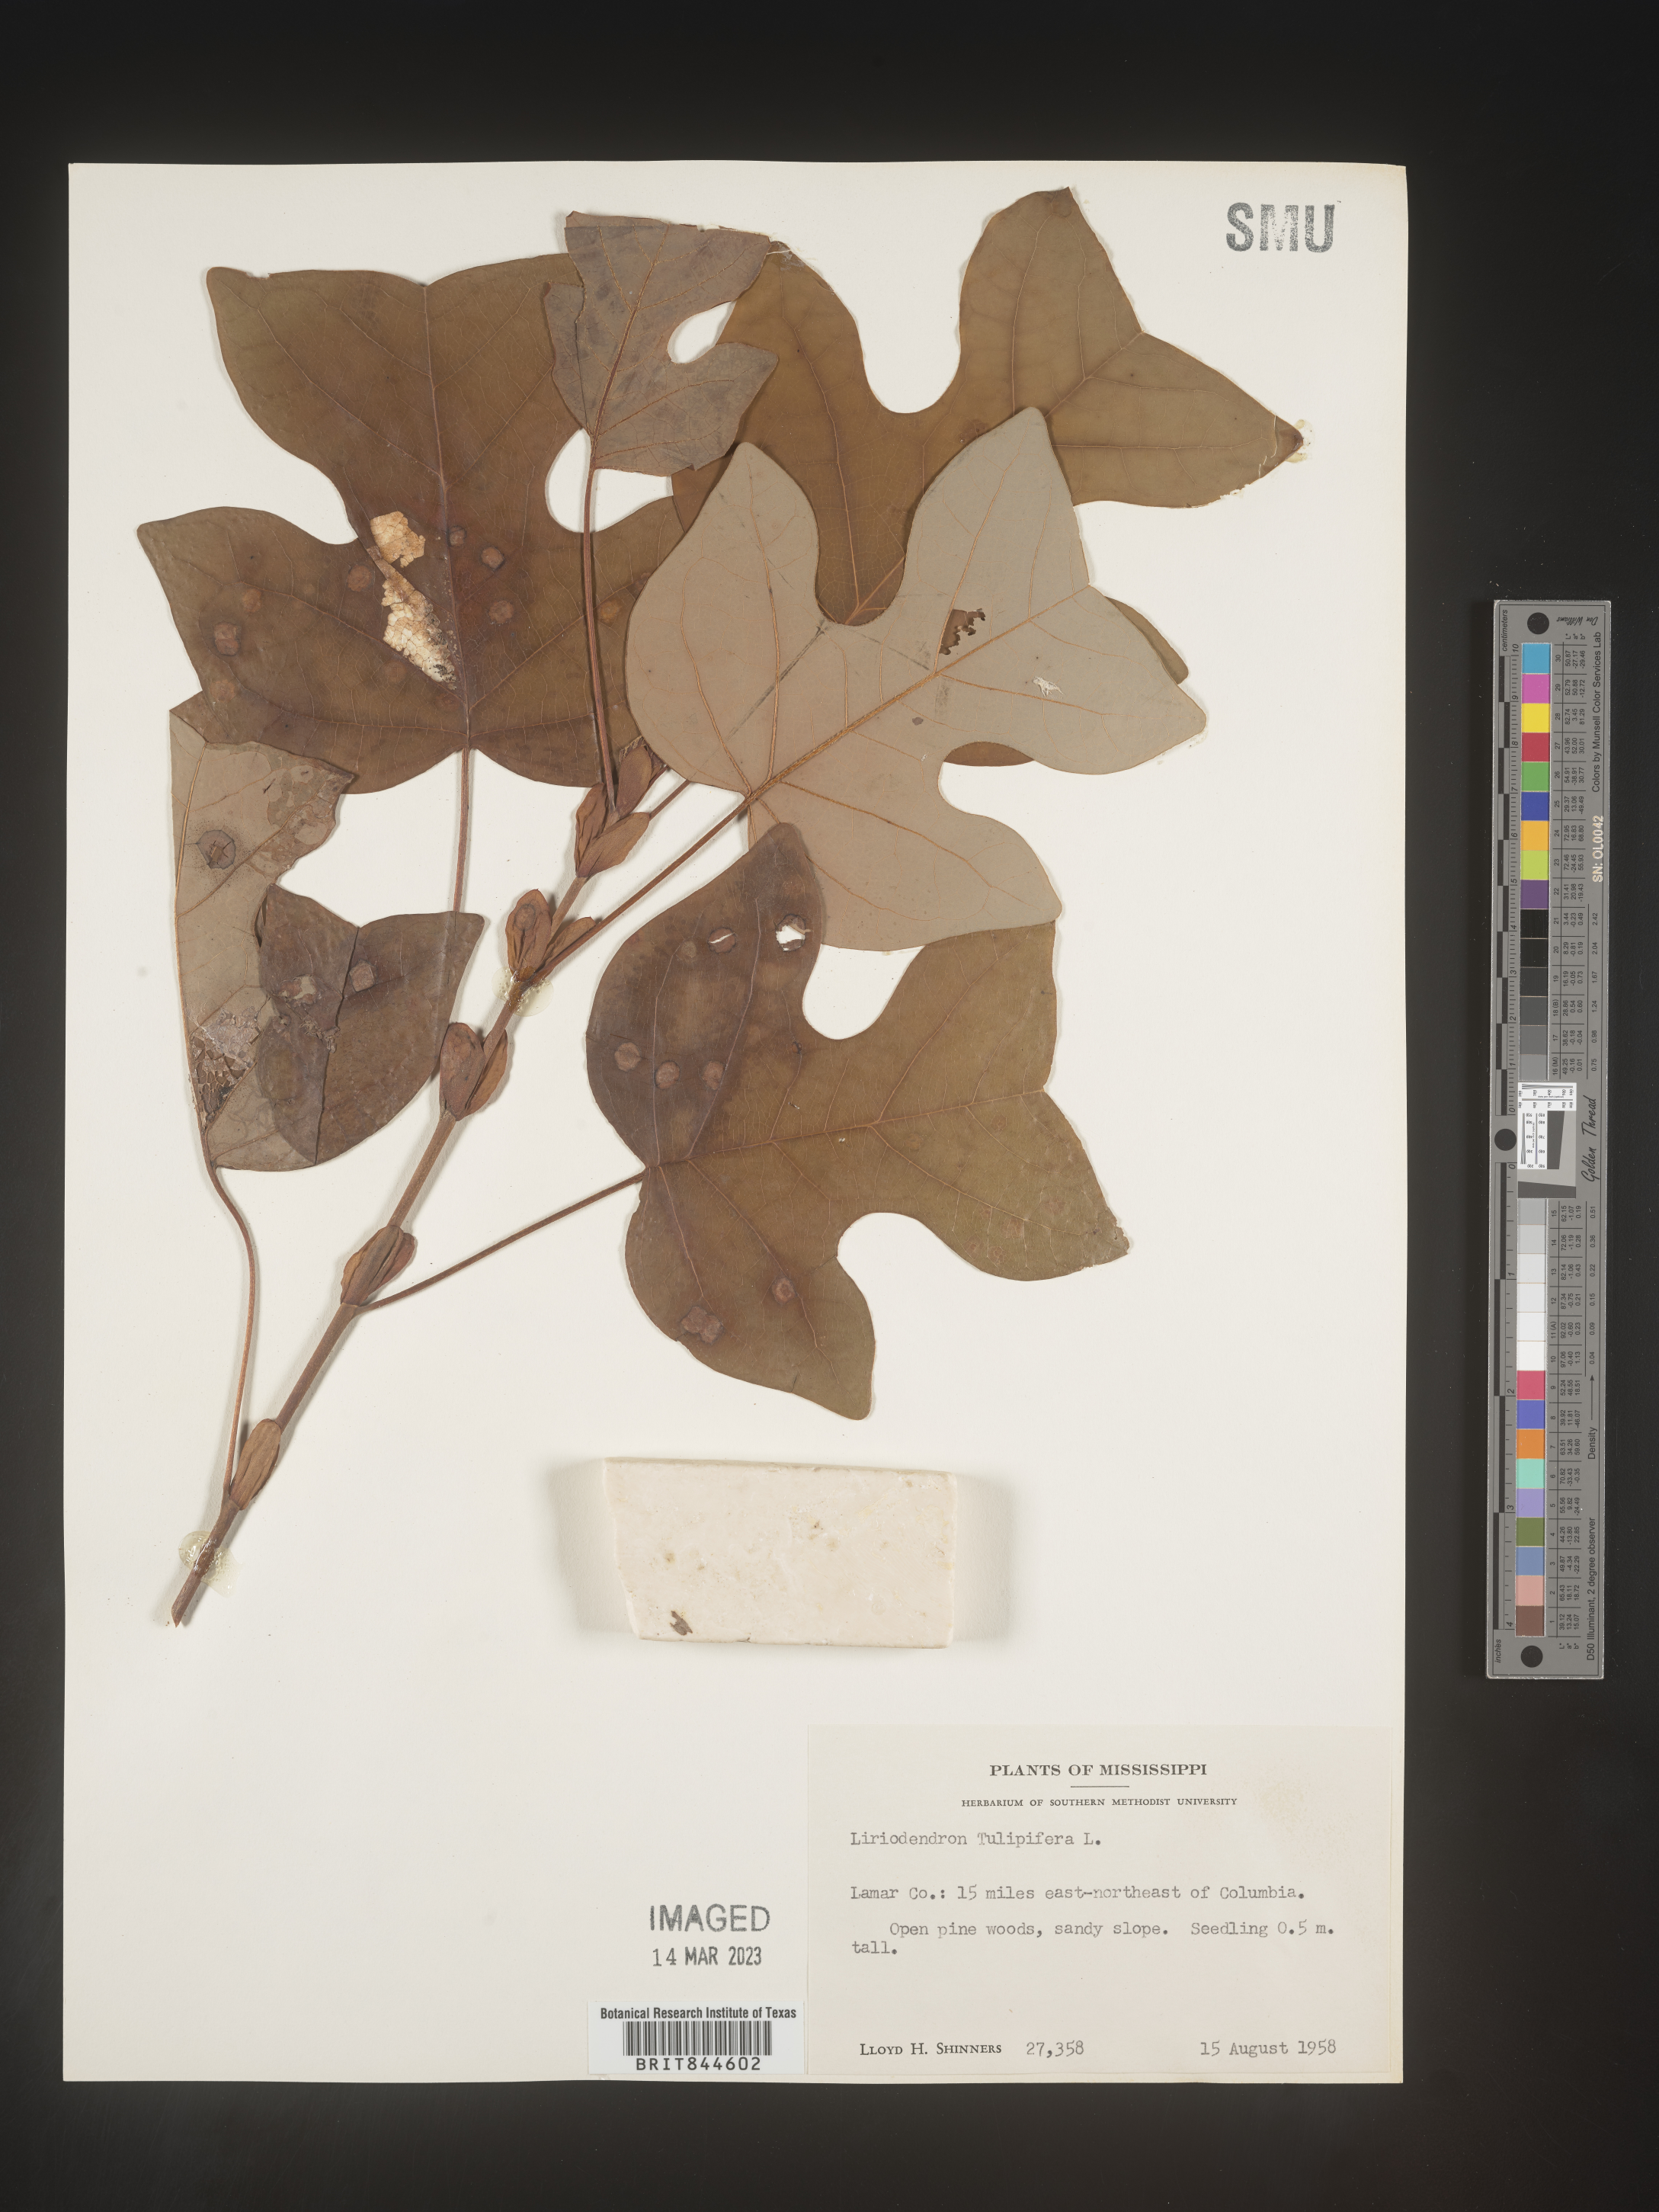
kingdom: Plantae
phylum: Tracheophyta
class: Magnoliopsida
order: Magnoliales
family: Magnoliaceae
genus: Liriodendron
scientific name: Liriodendron tulipifera
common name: Tulip tree
